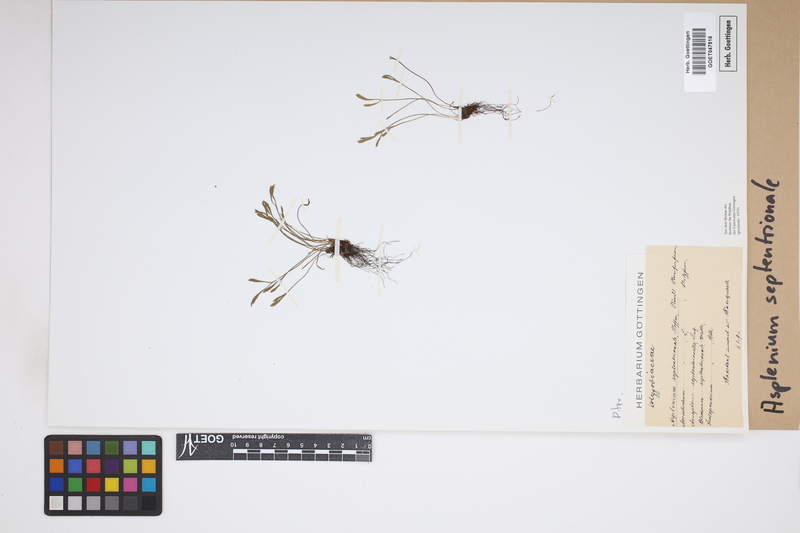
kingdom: Plantae
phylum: Tracheophyta
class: Polypodiopsida
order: Polypodiales
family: Aspleniaceae
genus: Asplenium
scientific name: Asplenium septentrionale
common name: Forked spleenwort
